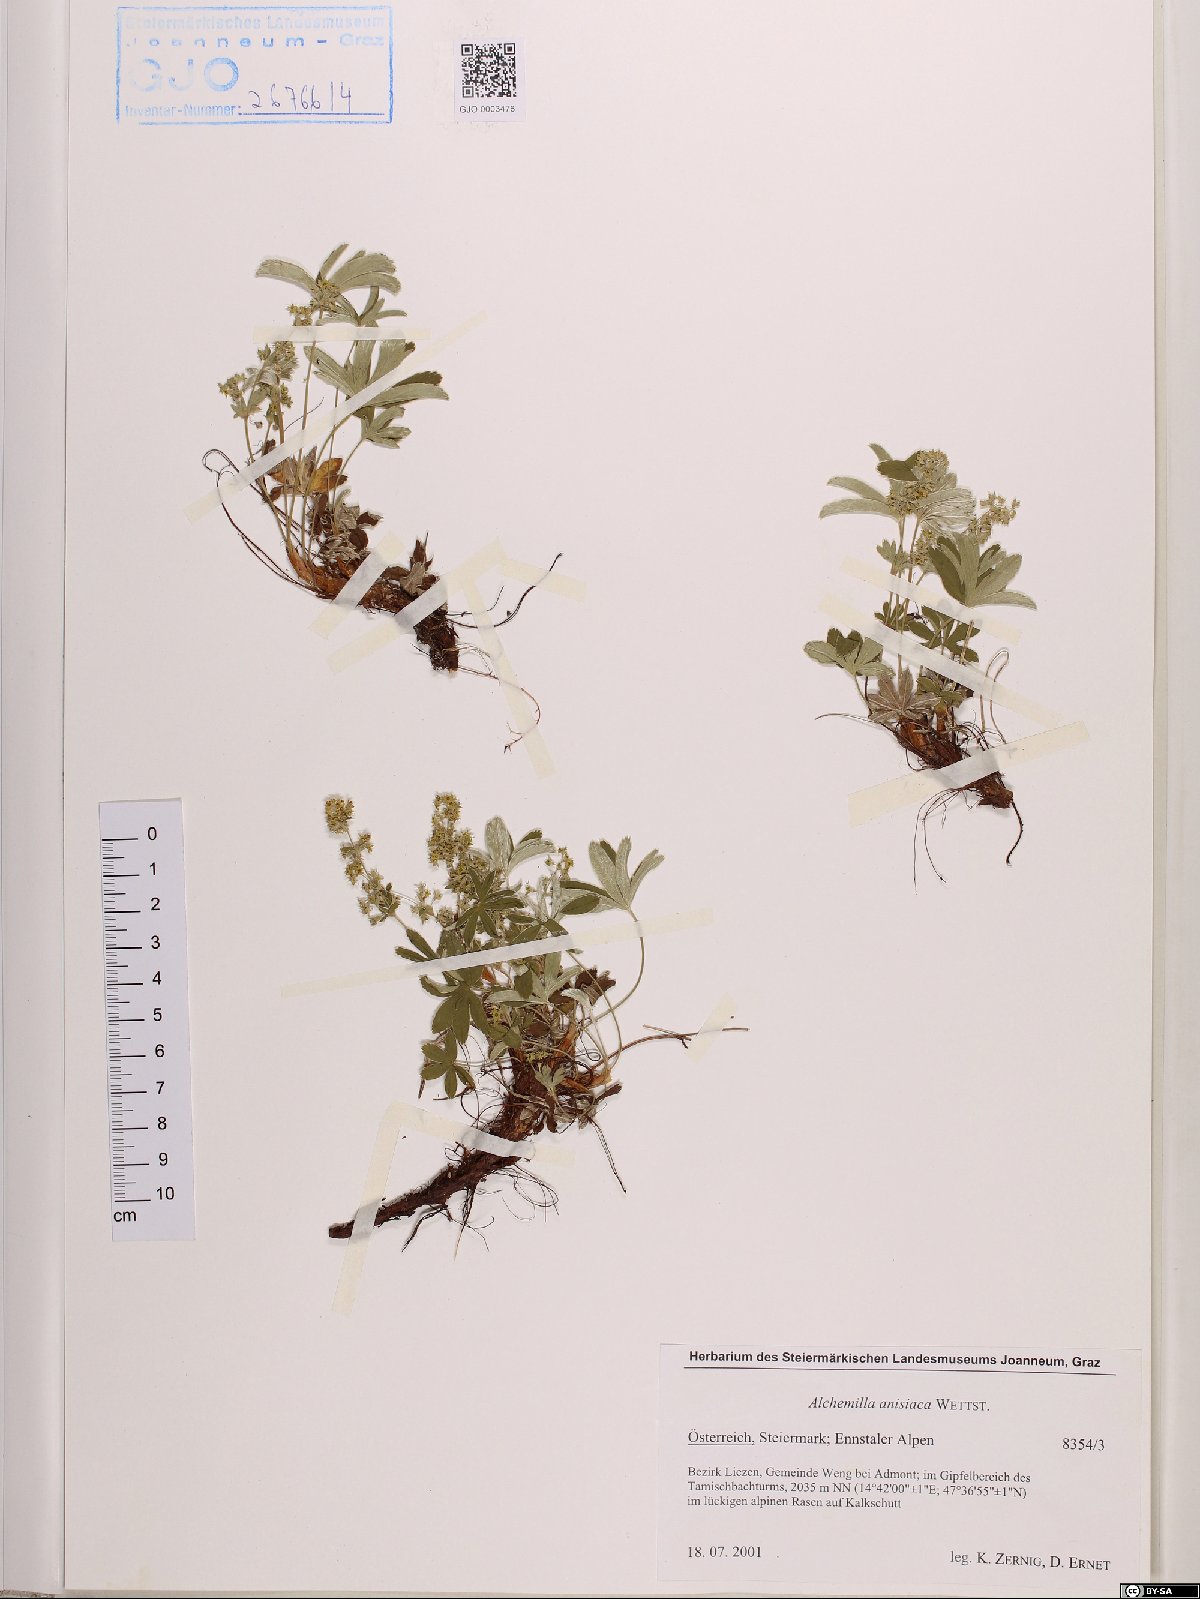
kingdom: Plantae
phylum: Tracheophyta
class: Magnoliopsida
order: Rosales
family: Rosaceae
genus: Alchemilla
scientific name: Alchemilla anisiaca
